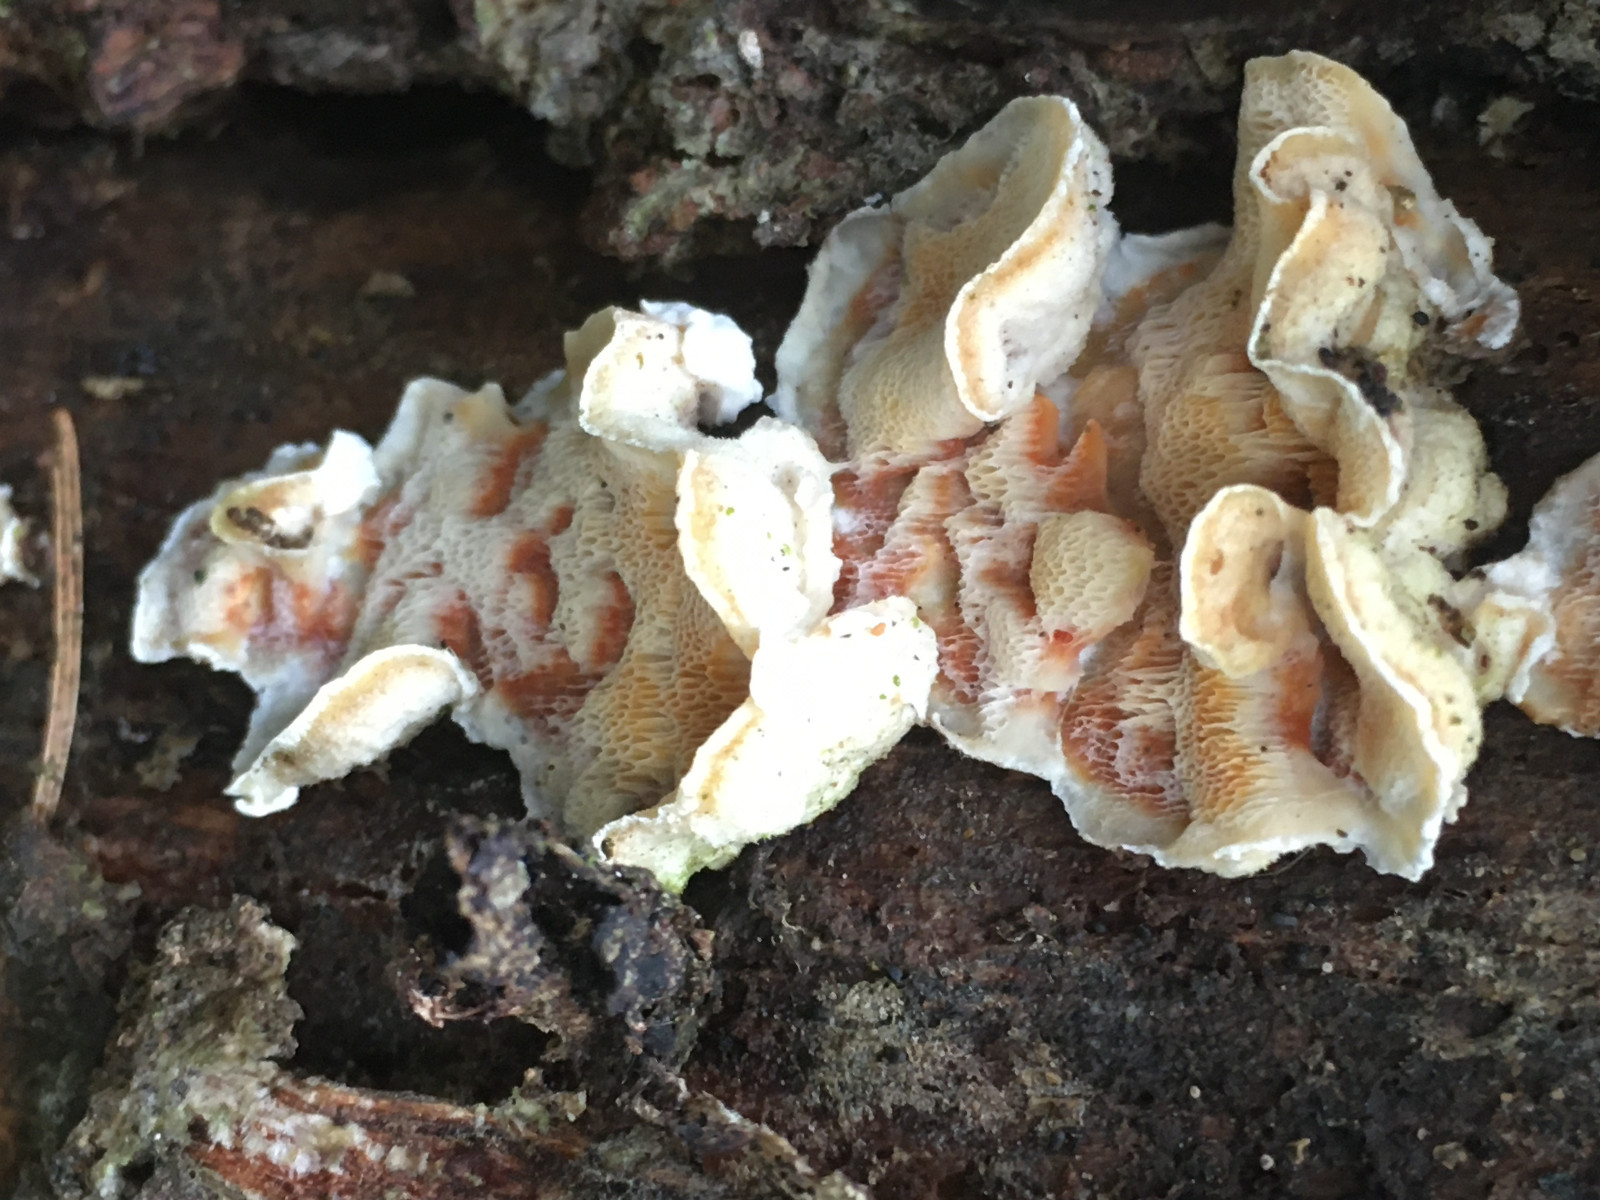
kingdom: Fungi
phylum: Basidiomycota
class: Agaricomycetes
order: Polyporales
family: Incrustoporiaceae
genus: Skeletocutis
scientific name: Skeletocutis amorpha
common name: orange krystalporesvamp
